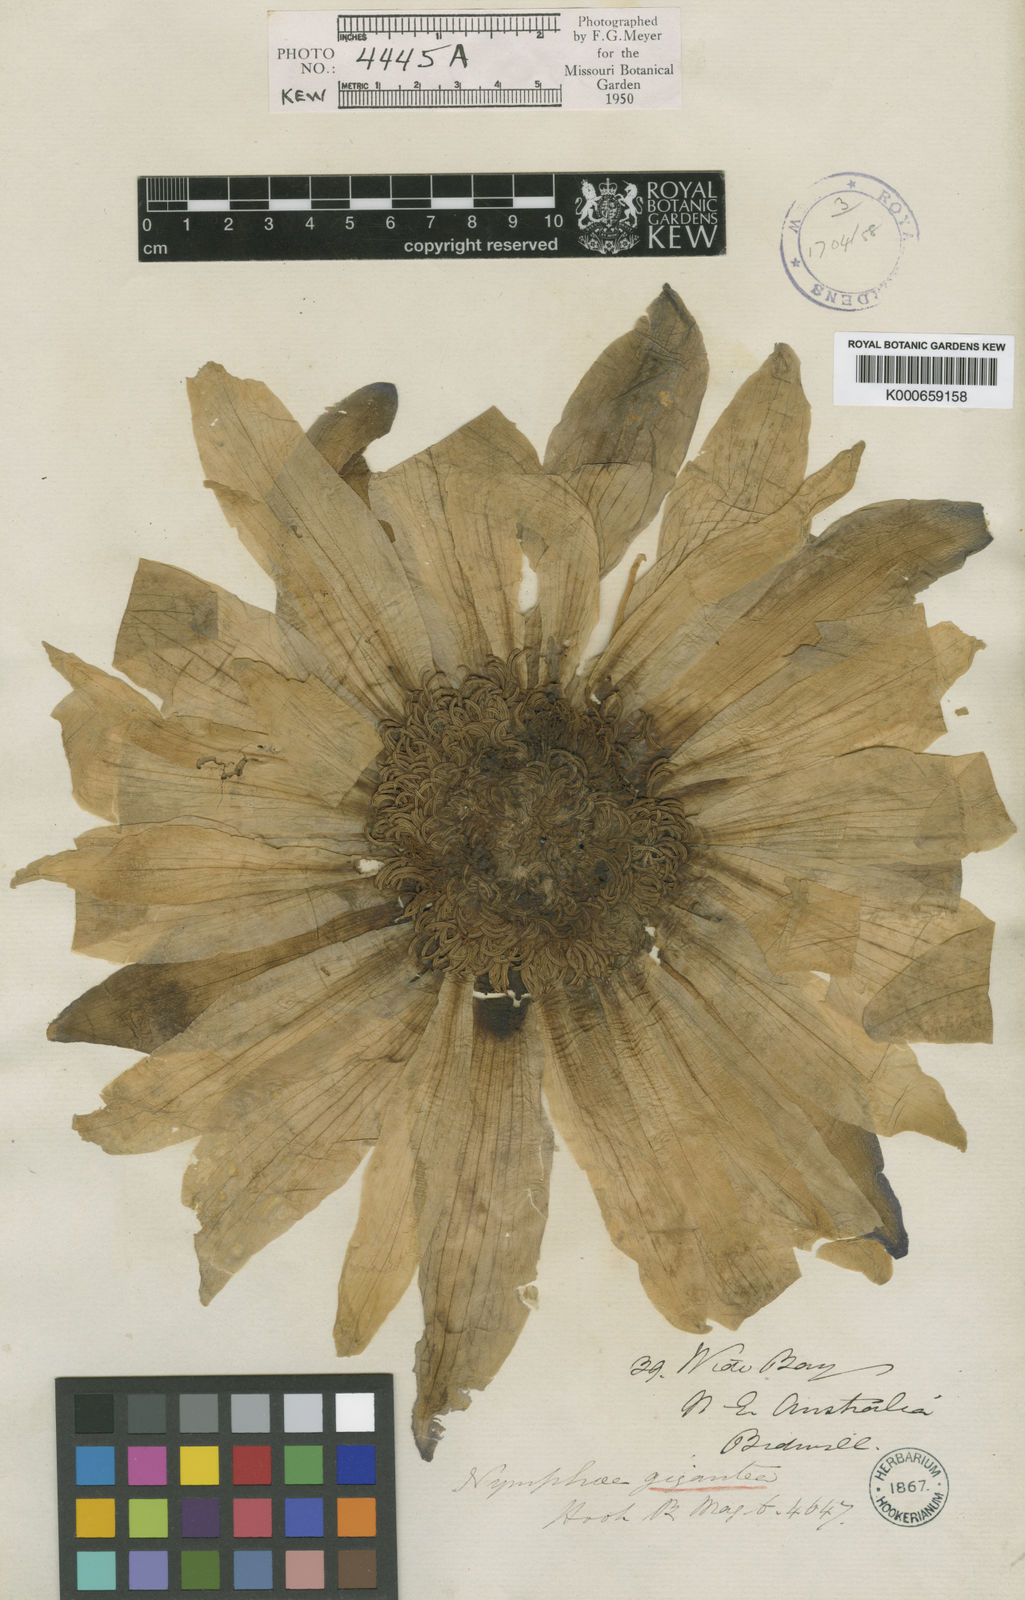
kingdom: Plantae
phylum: Tracheophyta
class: Magnoliopsida
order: Nymphaeales
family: Nymphaeaceae
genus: Nymphaea
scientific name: Nymphaea gigantea
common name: Giant water-lily
